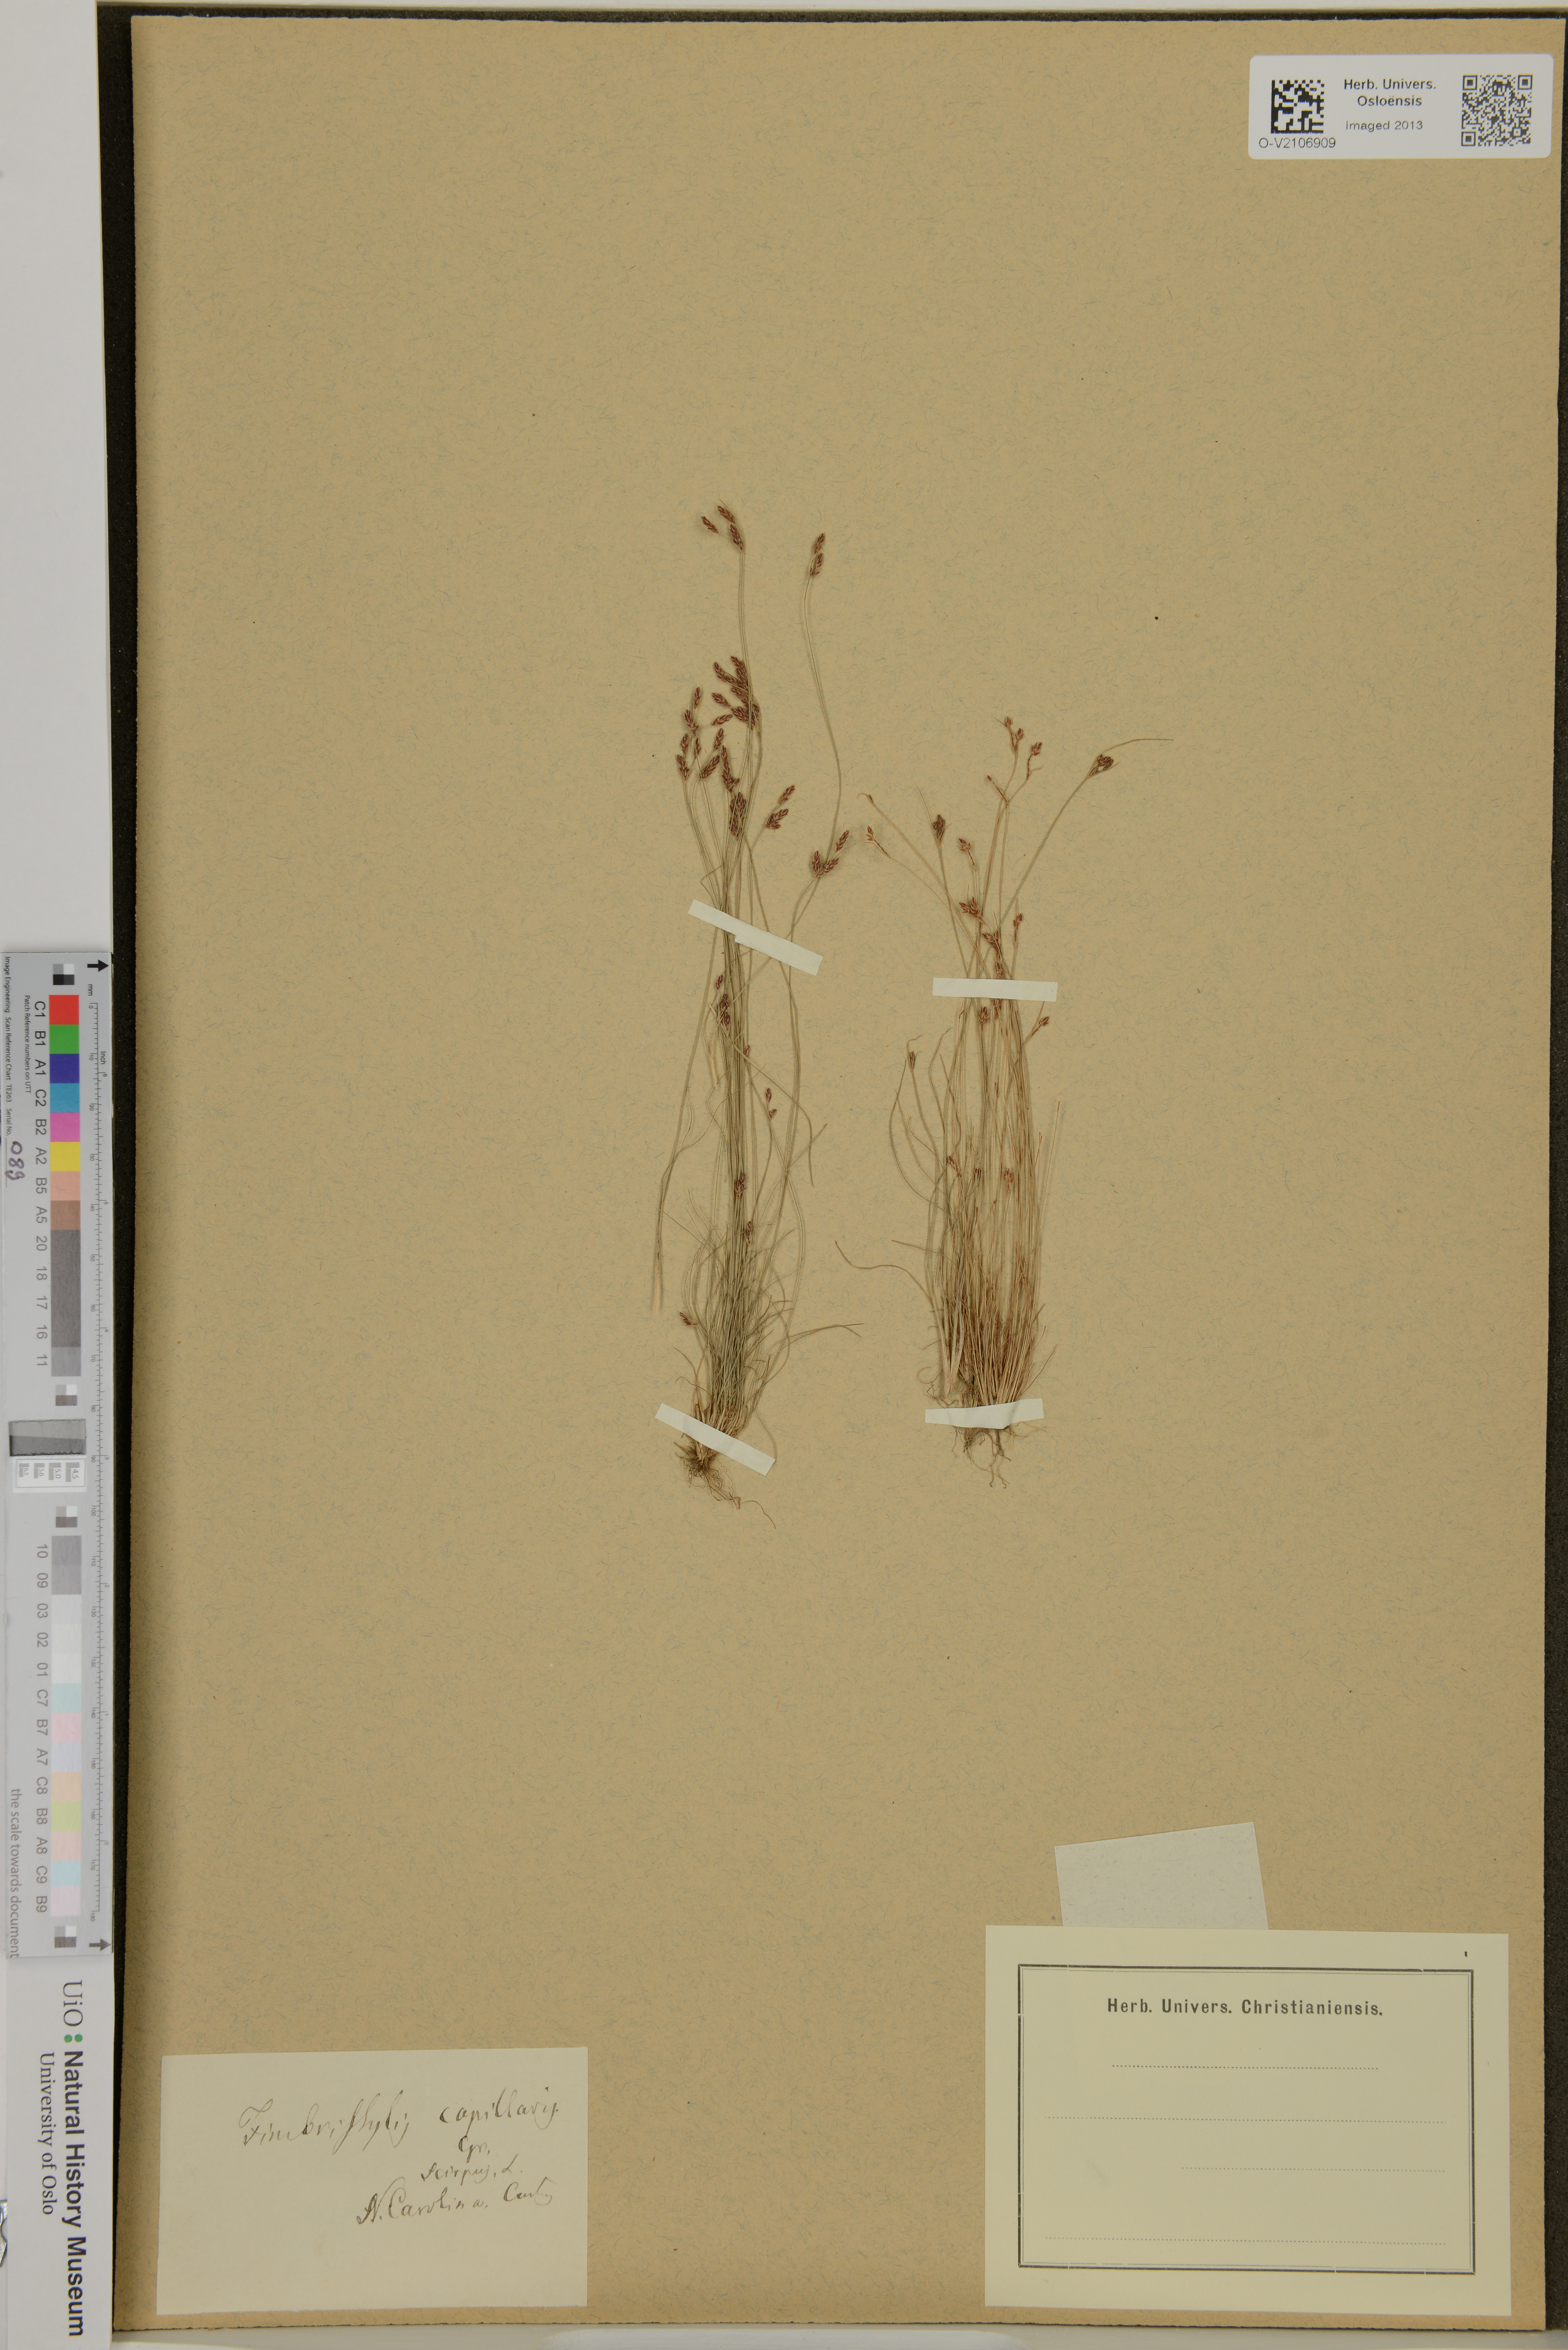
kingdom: Plantae
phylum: Tracheophyta
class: Liliopsida
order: Poales
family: Cyperaceae
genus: Bulbostylis
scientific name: Bulbostylis capillaris
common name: Densetuft hairsedge
